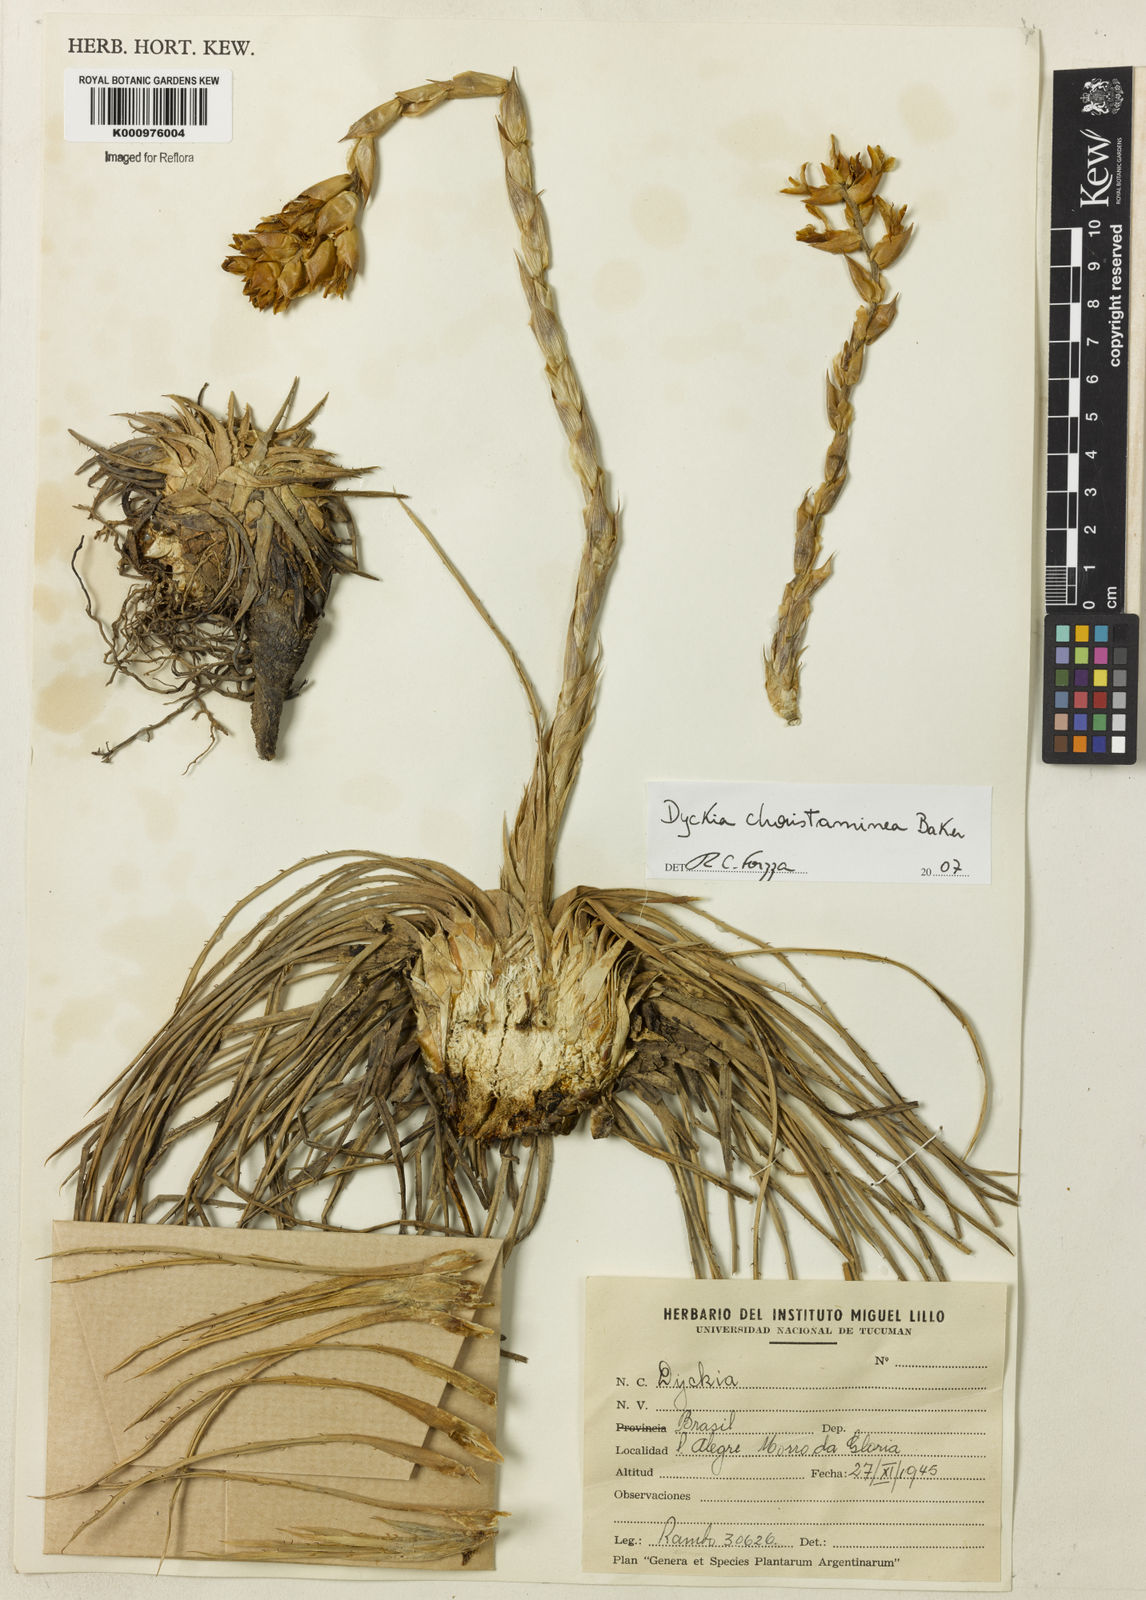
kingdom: Plantae
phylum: Tracheophyta
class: Liliopsida
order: Poales
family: Bromeliaceae
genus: Dyckia
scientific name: Dyckia choristaminea
